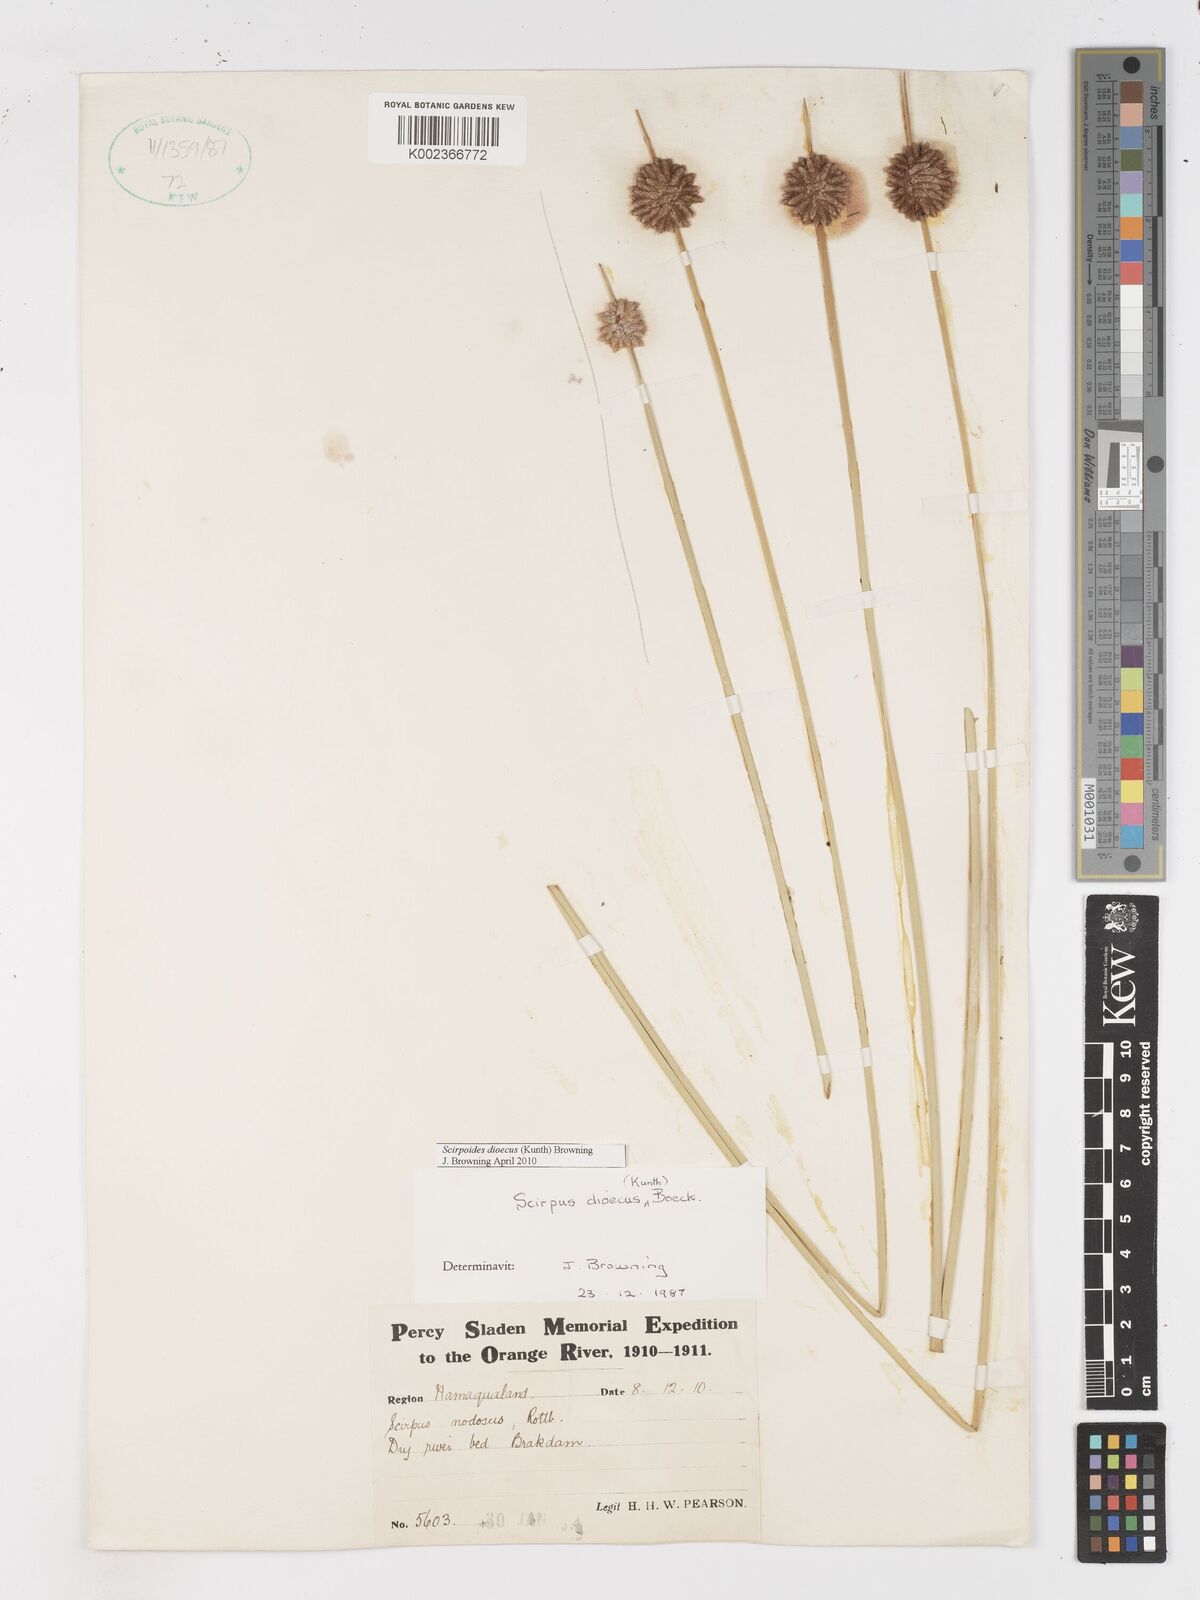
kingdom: Plantae
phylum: Tracheophyta
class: Liliopsida
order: Poales
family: Cyperaceae
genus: Afroscirpoides
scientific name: Afroscirpoides dioeca
